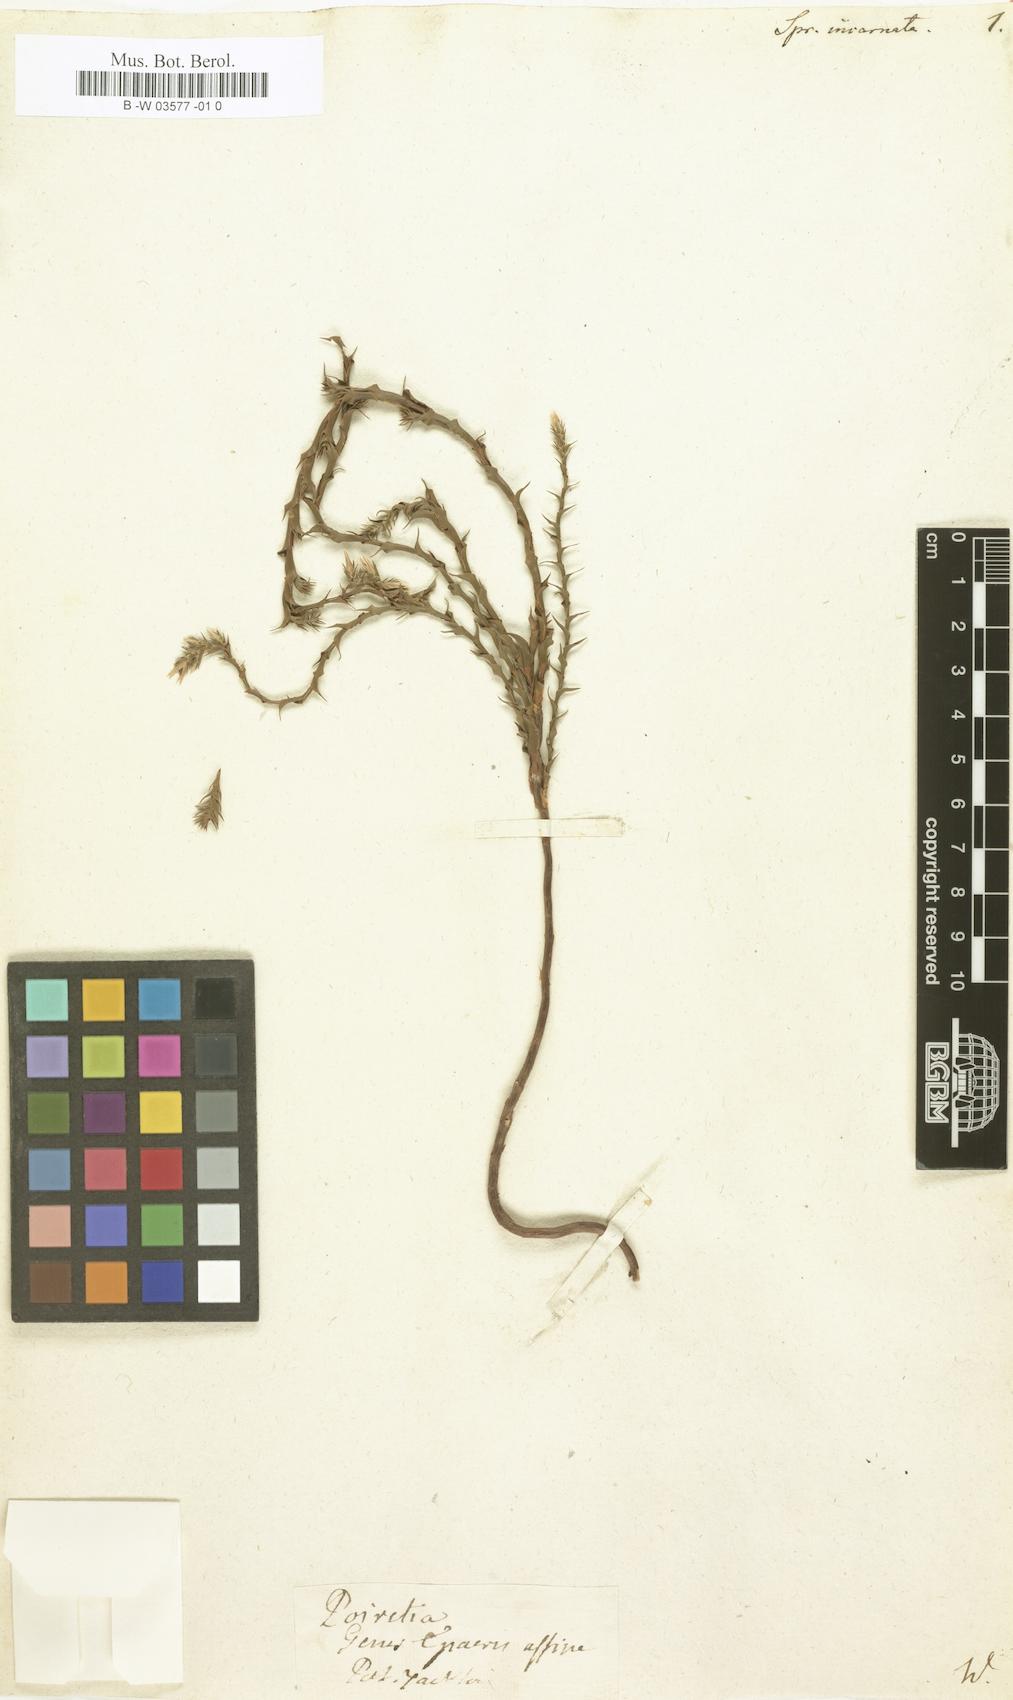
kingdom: Plantae
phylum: Tracheophyta
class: Magnoliopsida
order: Ericales
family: Ericaceae
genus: Sprengelia
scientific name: Sprengelia incarnata
